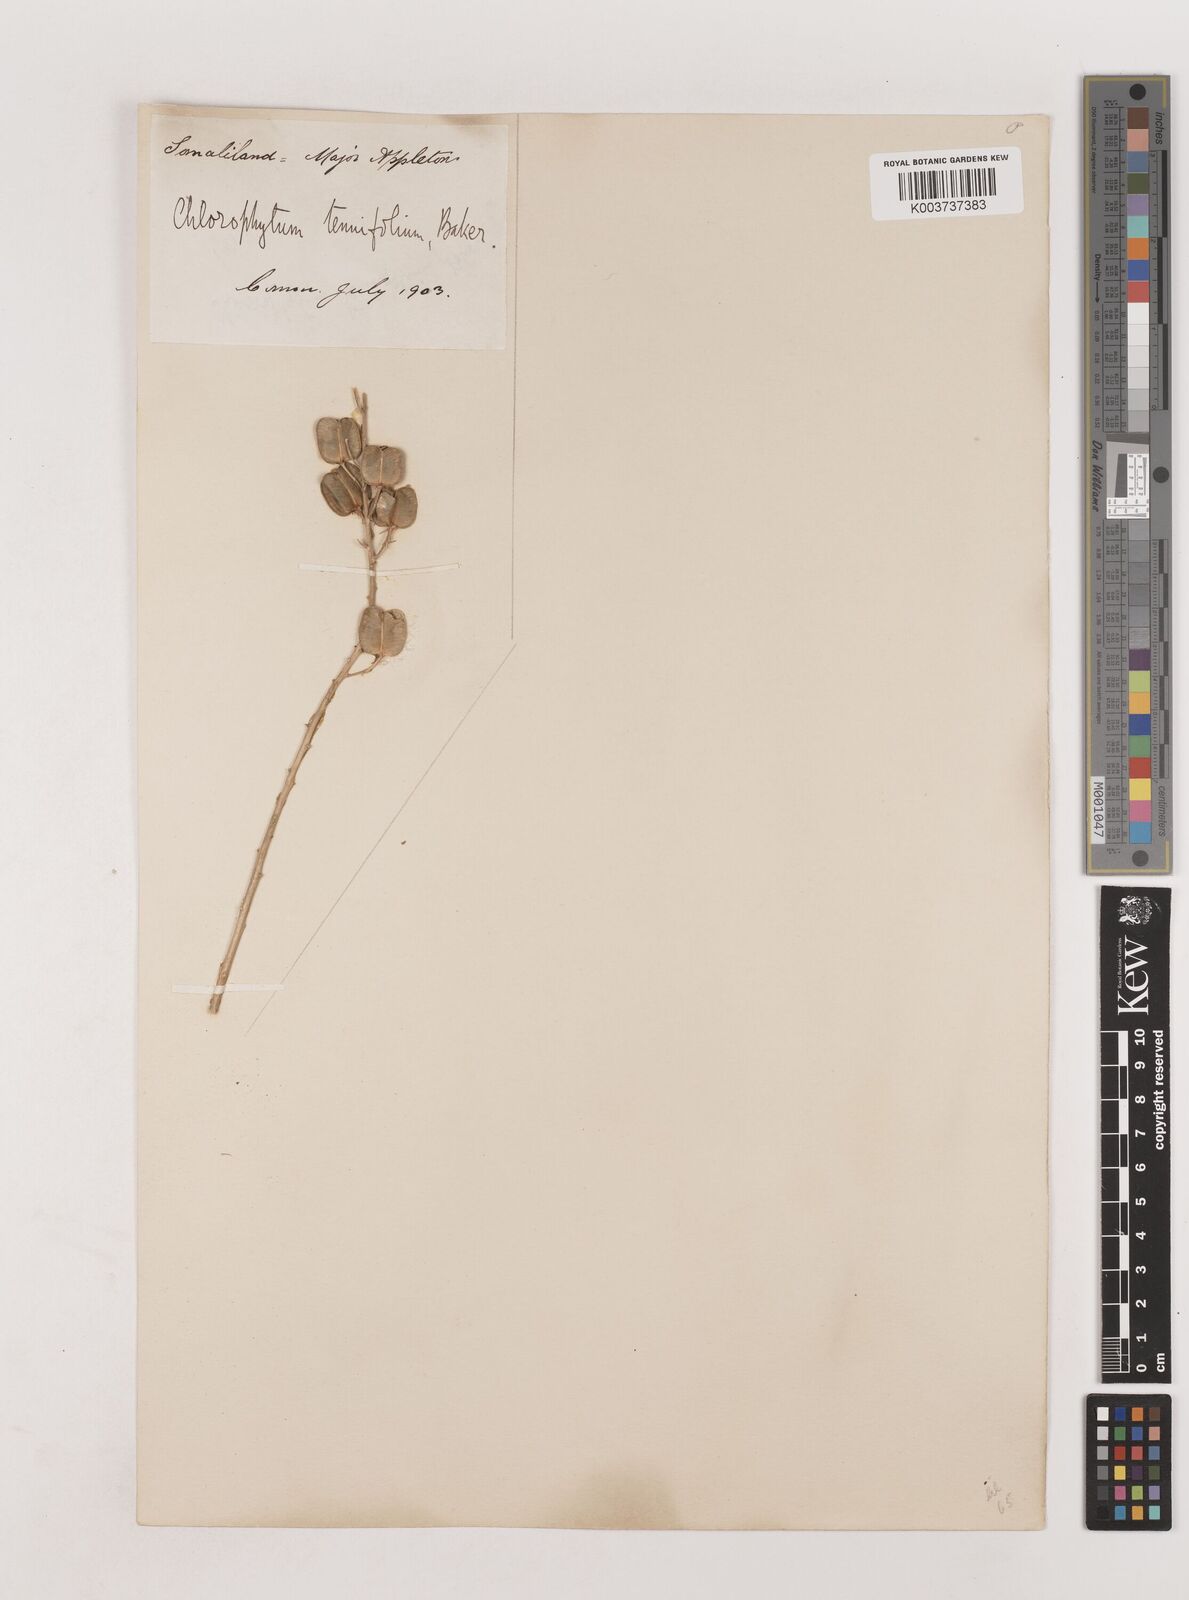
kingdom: Plantae
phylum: Tracheophyta
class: Liliopsida
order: Asparagales
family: Asparagaceae
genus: Chlorophytum
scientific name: Chlorophytum somaliense
